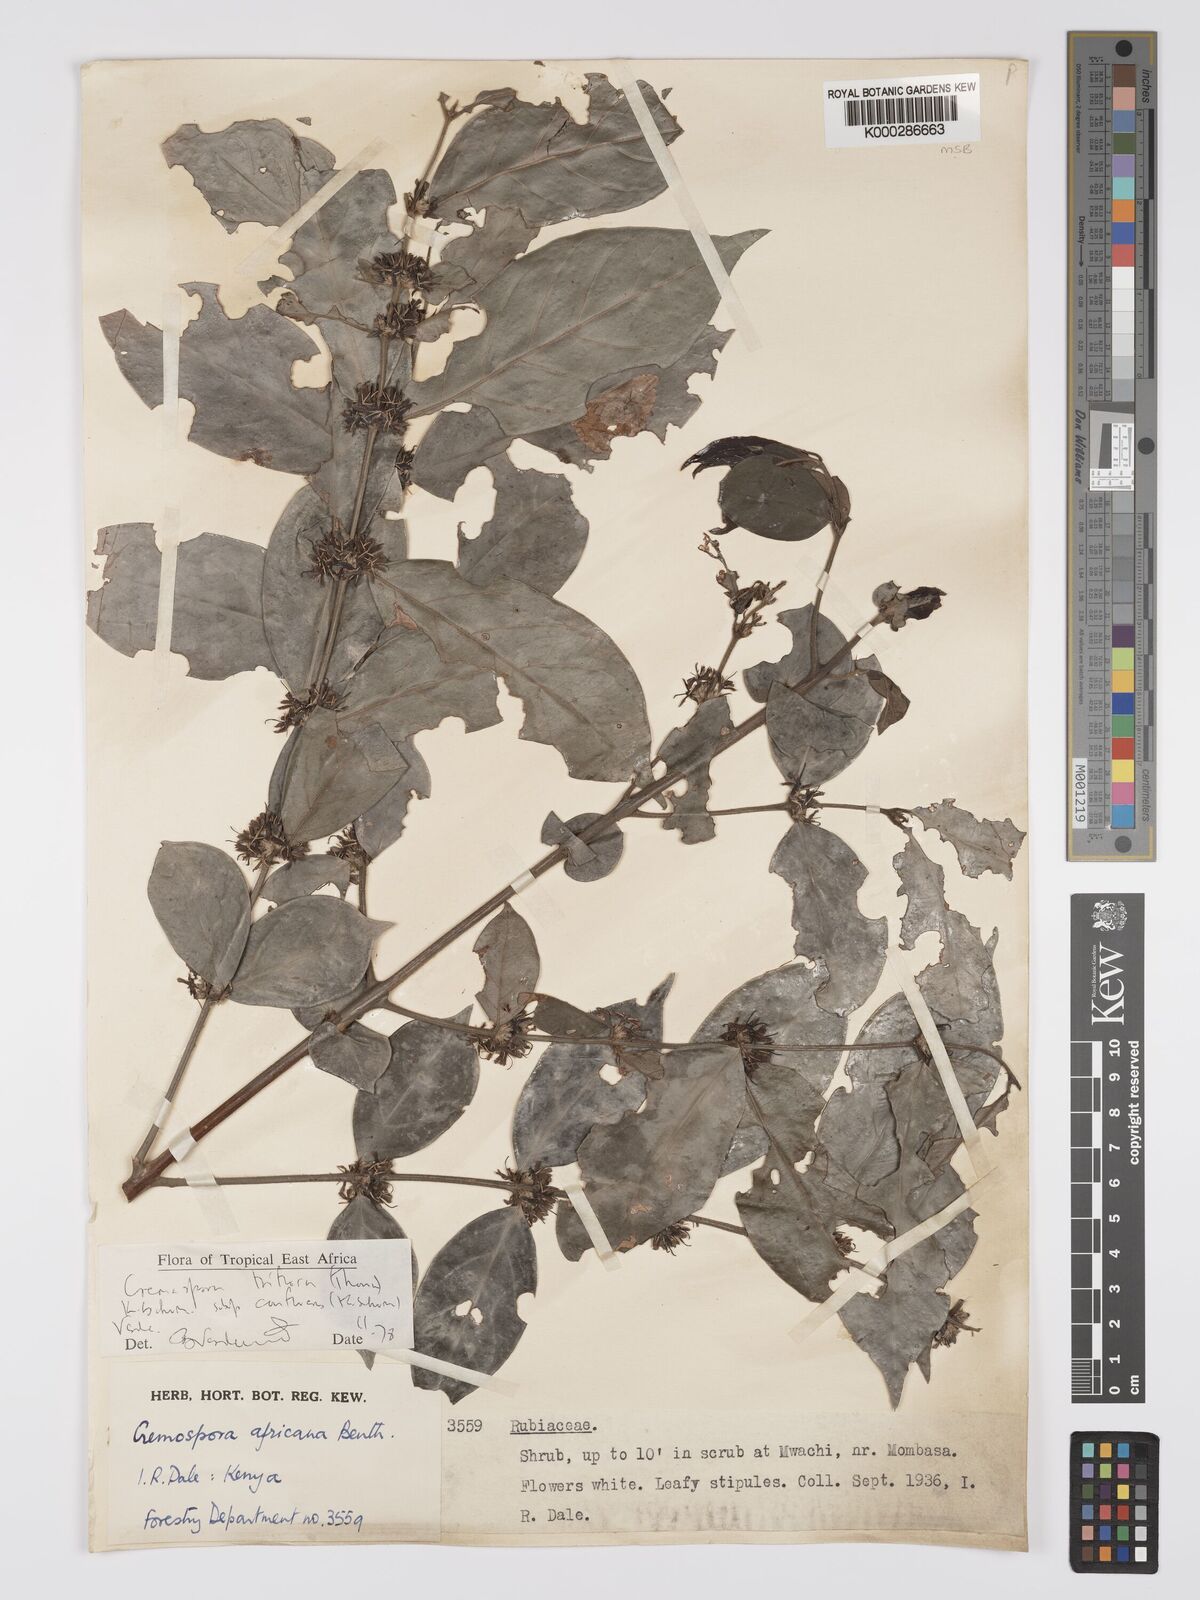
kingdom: Plantae
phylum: Tracheophyta
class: Magnoliopsida
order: Gentianales
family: Rubiaceae
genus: Cremaspora
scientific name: Cremaspora triflora
